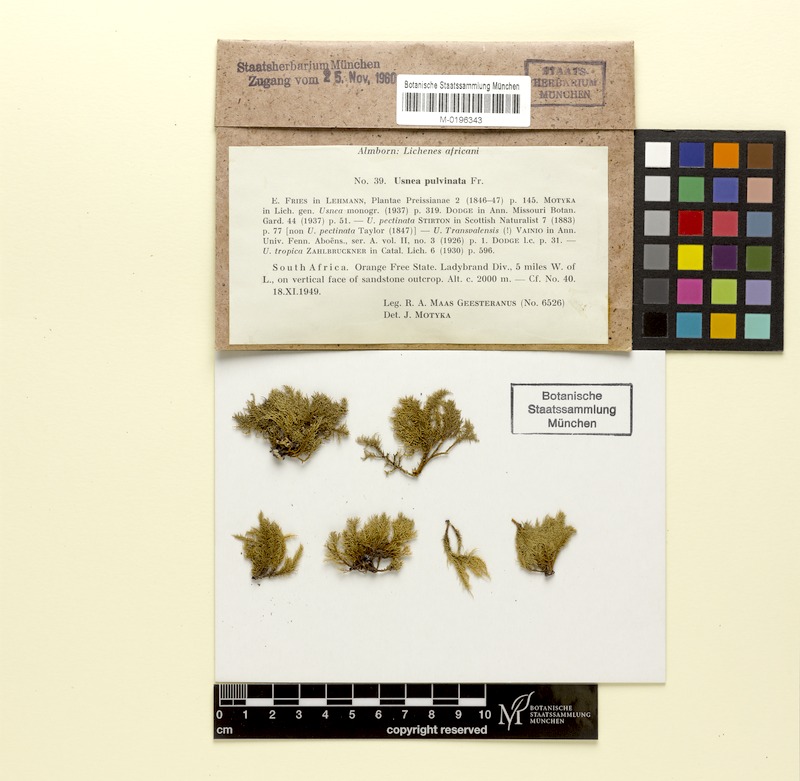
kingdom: Fungi
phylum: Ascomycota
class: Lecanoromycetes
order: Lecanorales
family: Parmeliaceae
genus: Usnea
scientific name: Usnea pulvinata
